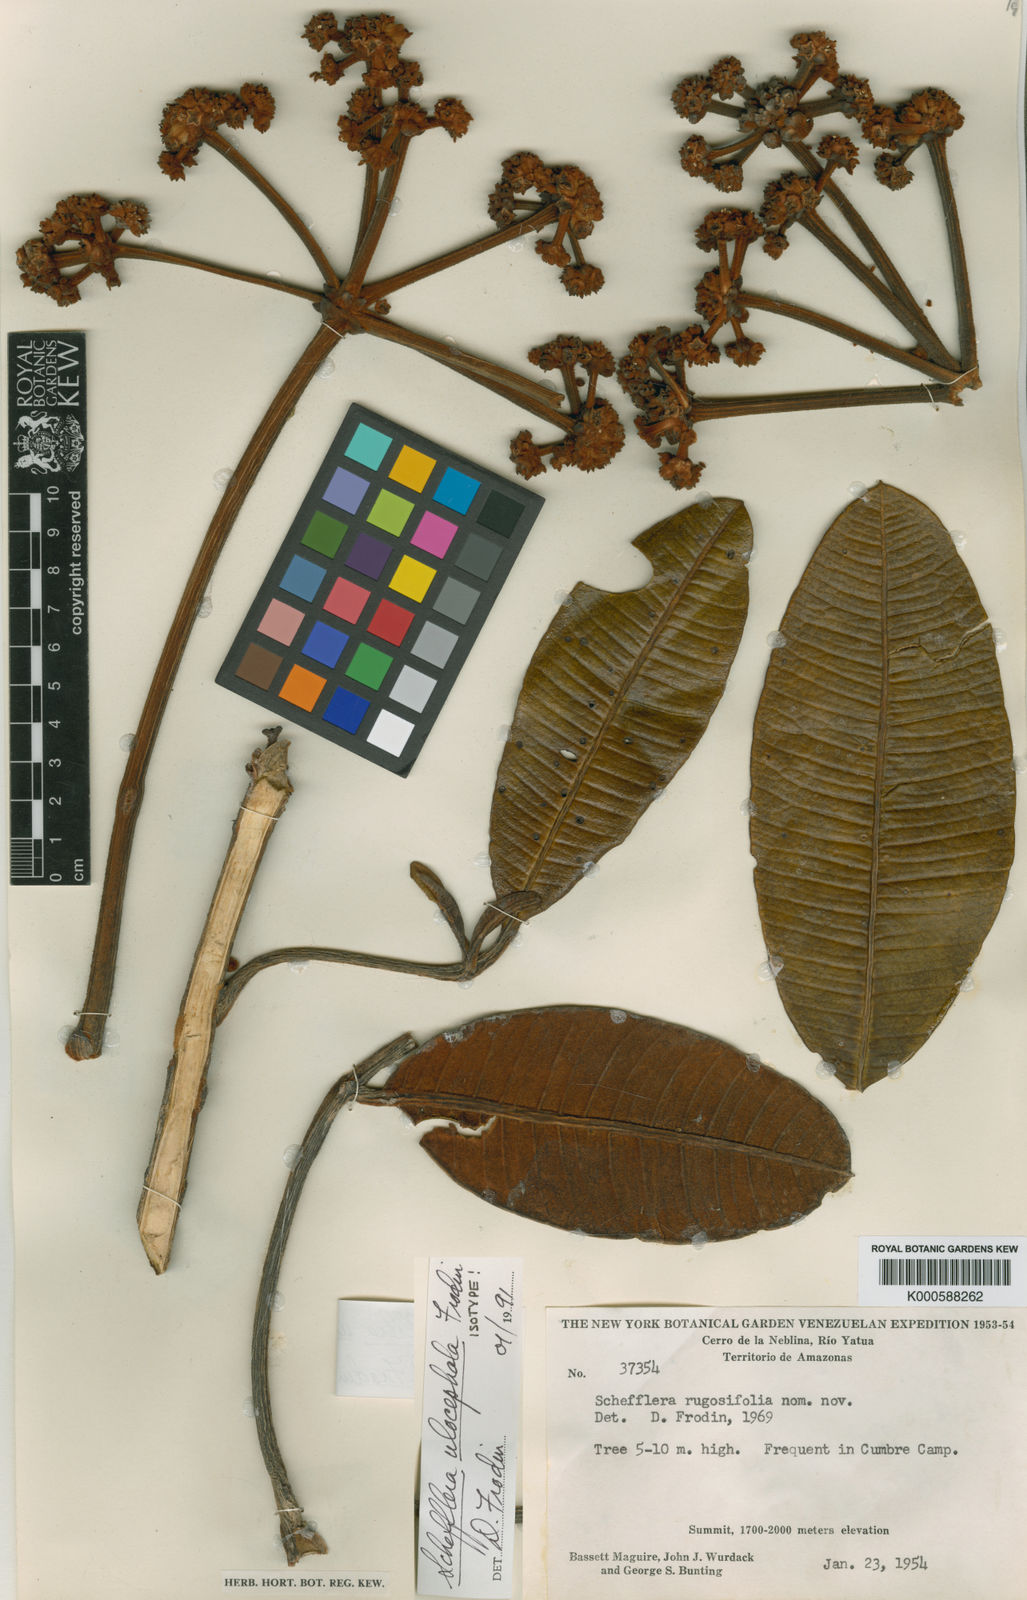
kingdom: Plantae
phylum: Tracheophyta
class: Magnoliopsida
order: Apiales
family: Araliaceae
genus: Crepinella
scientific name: Crepinella
